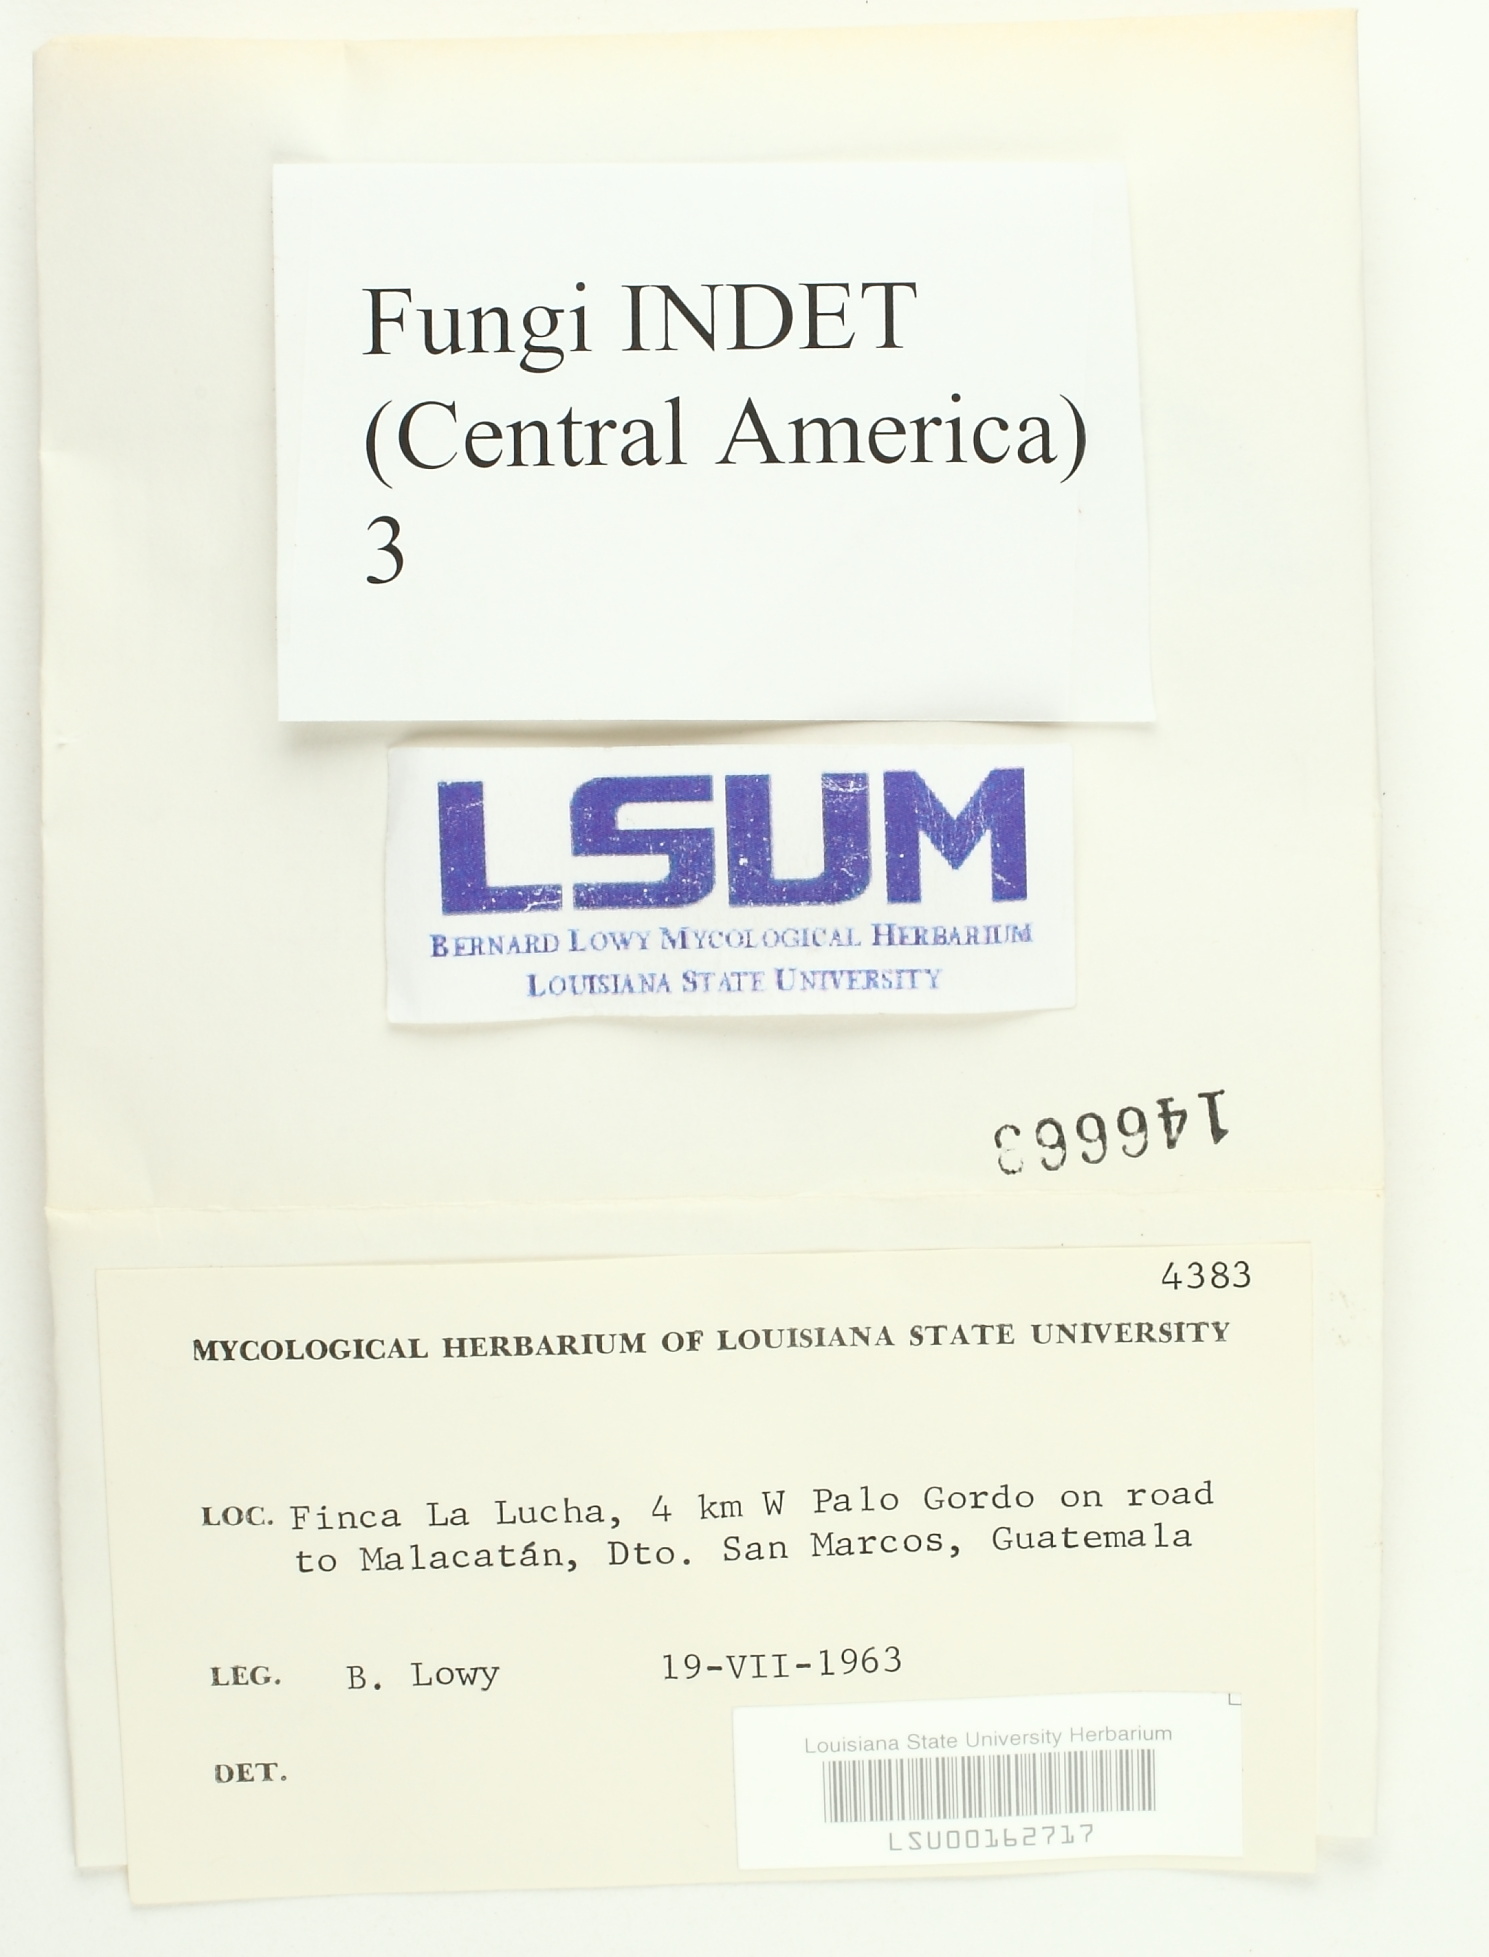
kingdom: Fungi
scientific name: Fungi
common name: Fungi
